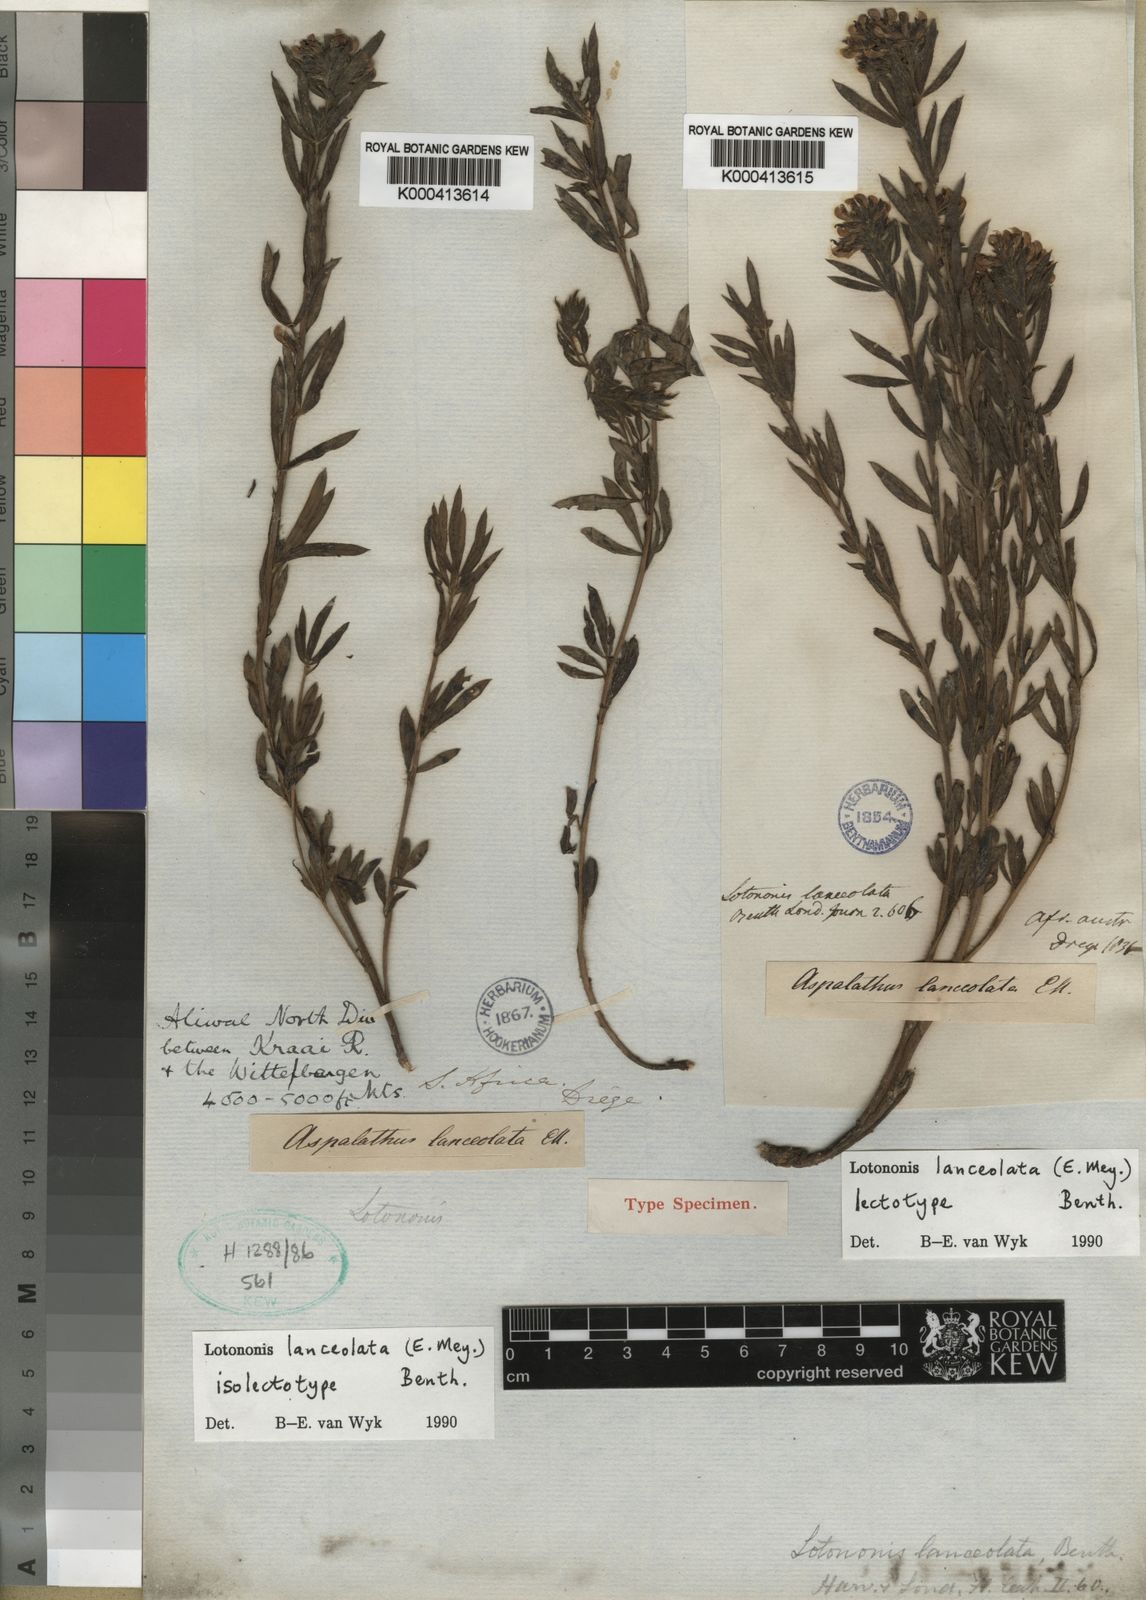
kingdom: Plantae
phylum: Tracheophyta
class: Magnoliopsida
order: Fabales
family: Fabaceae
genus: Leobordea
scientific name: Leobordea lanceolata
